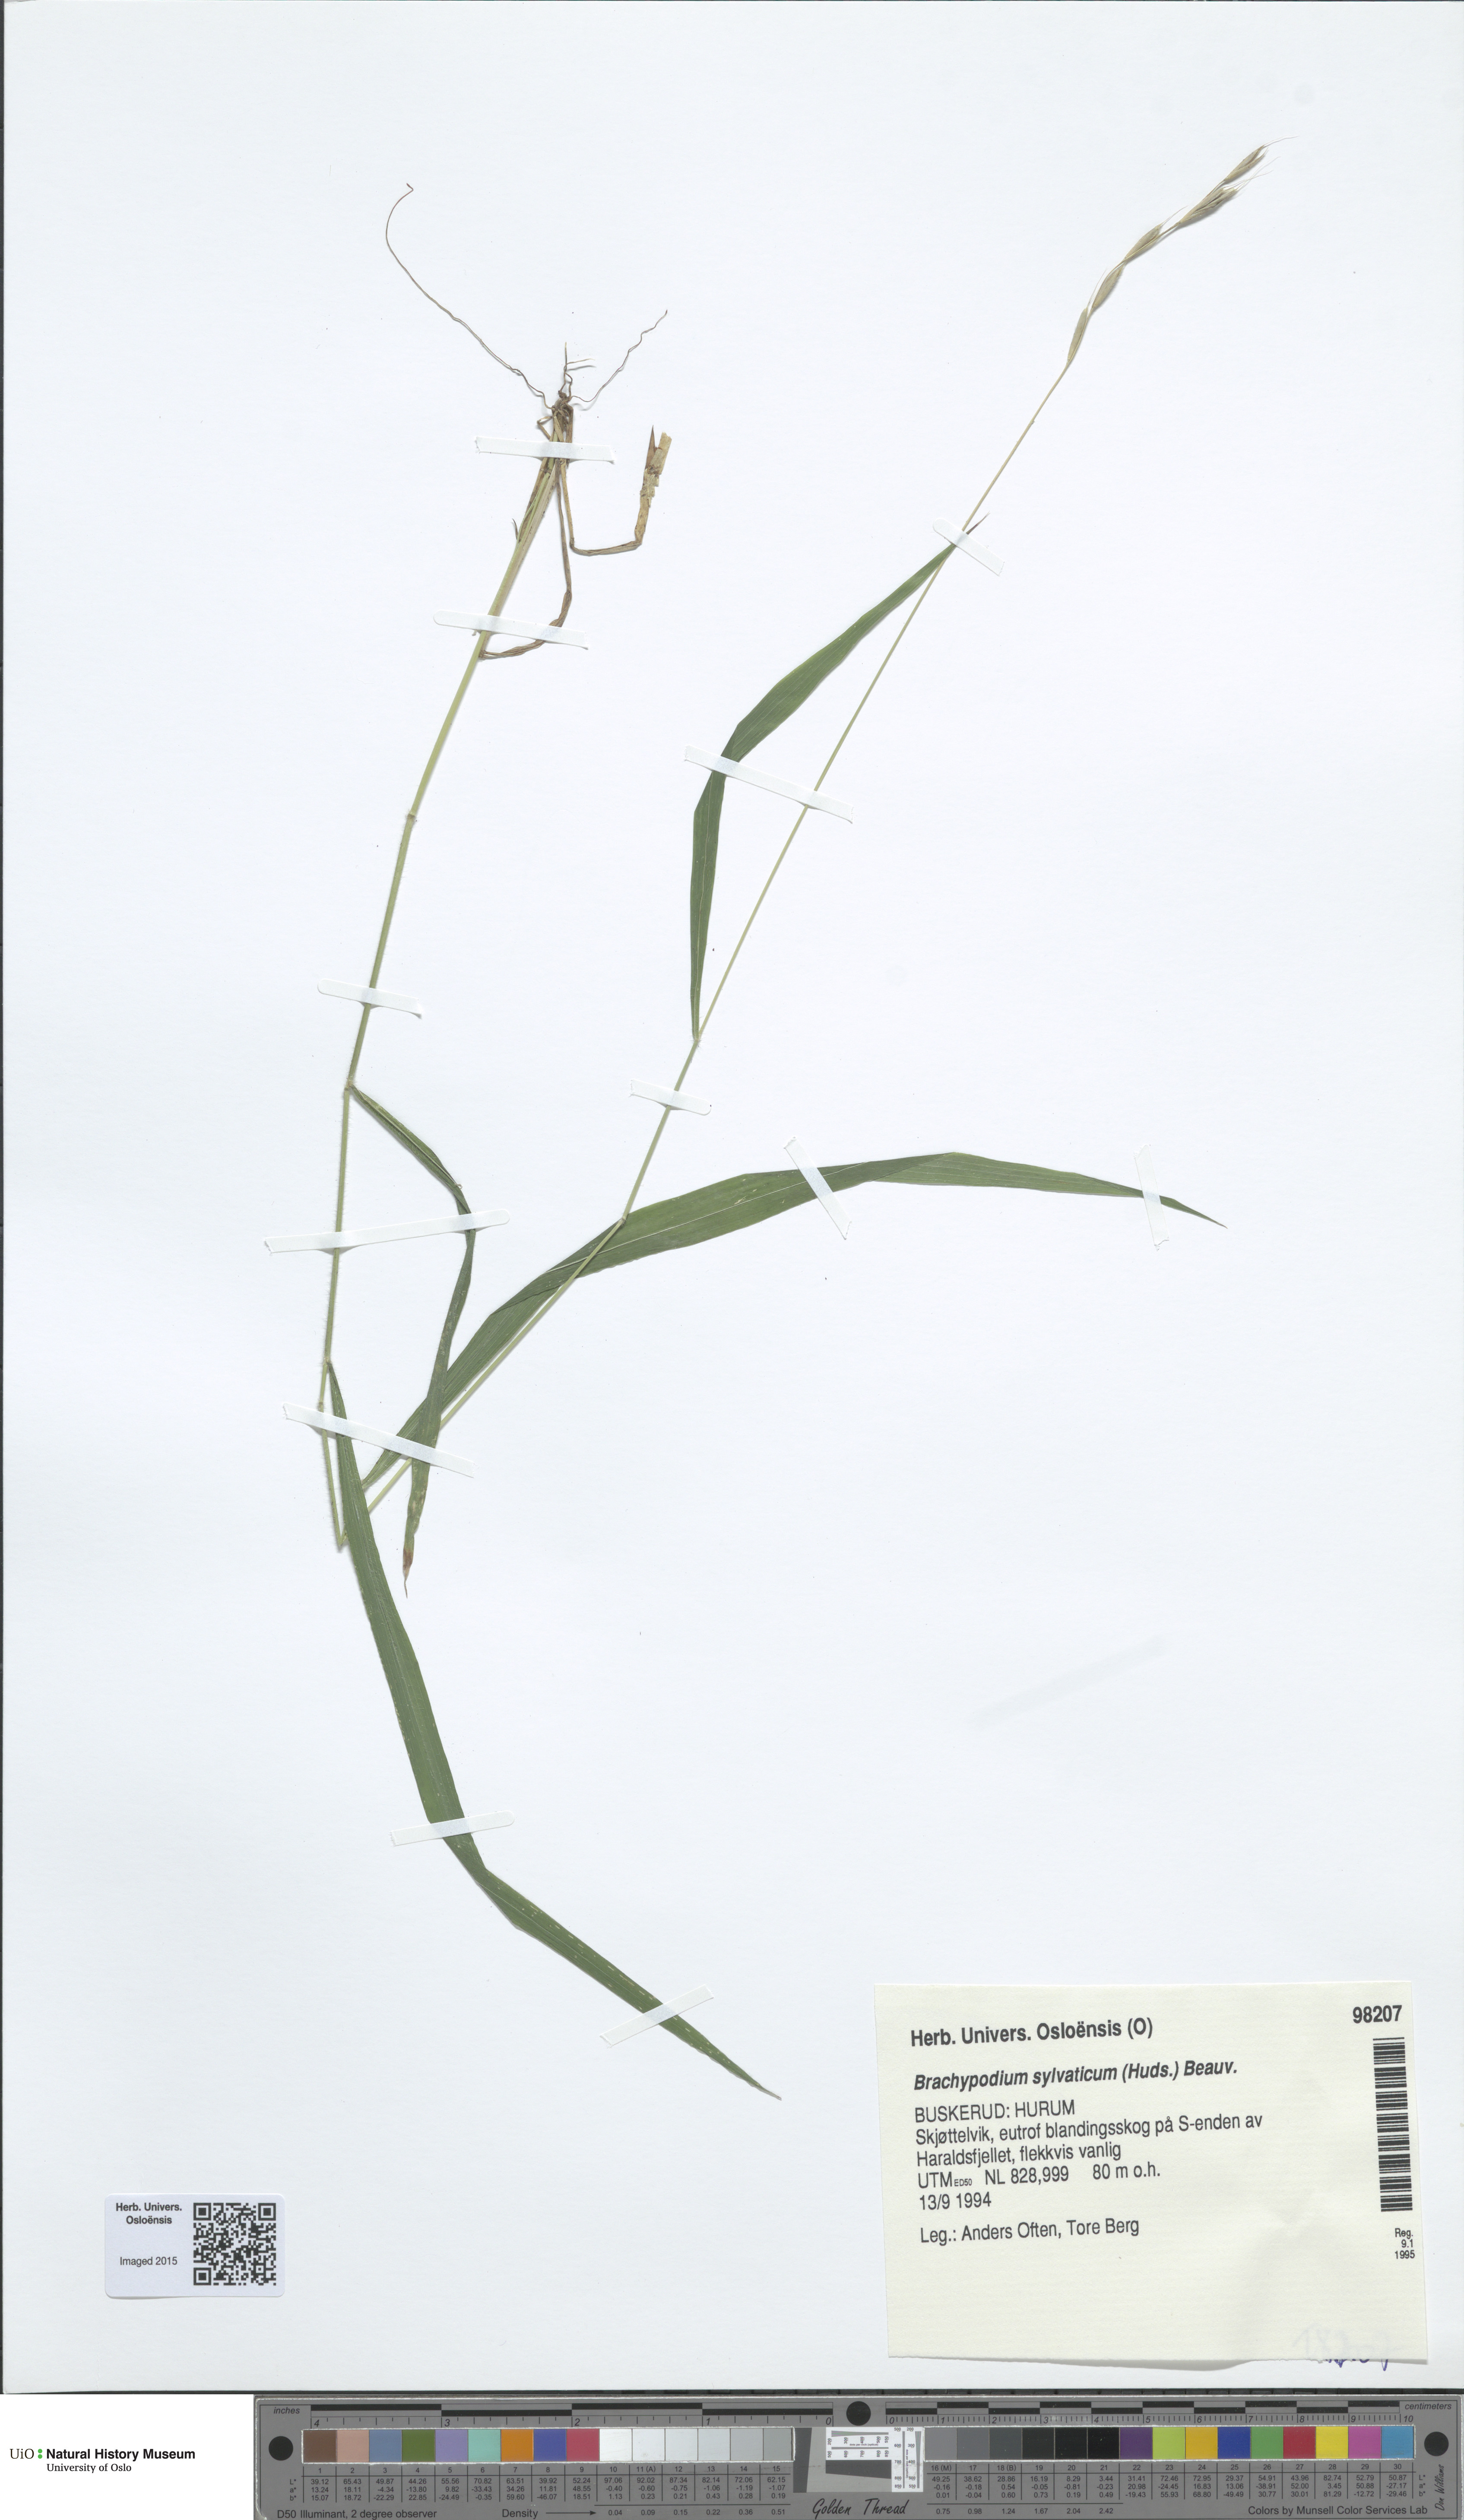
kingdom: Plantae
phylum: Tracheophyta
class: Liliopsida
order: Poales
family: Poaceae
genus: Brachypodium
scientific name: Brachypodium sylvaticum
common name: False-brome
